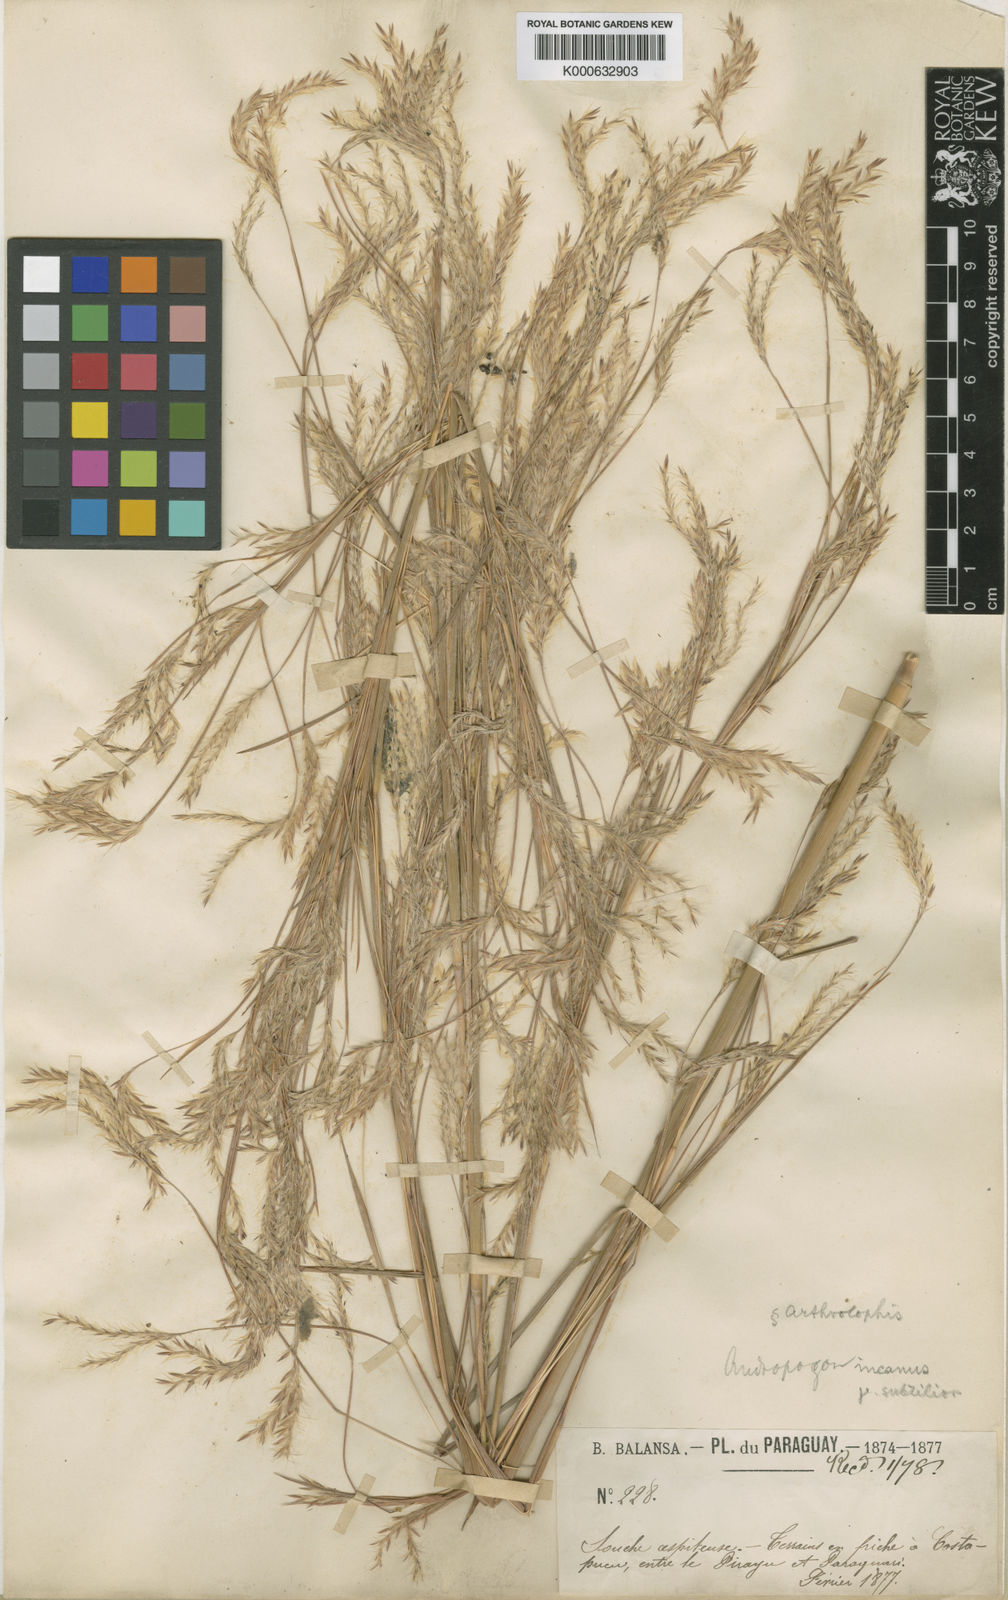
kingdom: Plantae
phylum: Tracheophyta
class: Liliopsida
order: Poales
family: Poaceae
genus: Andropogon
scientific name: Andropogon lateralis
